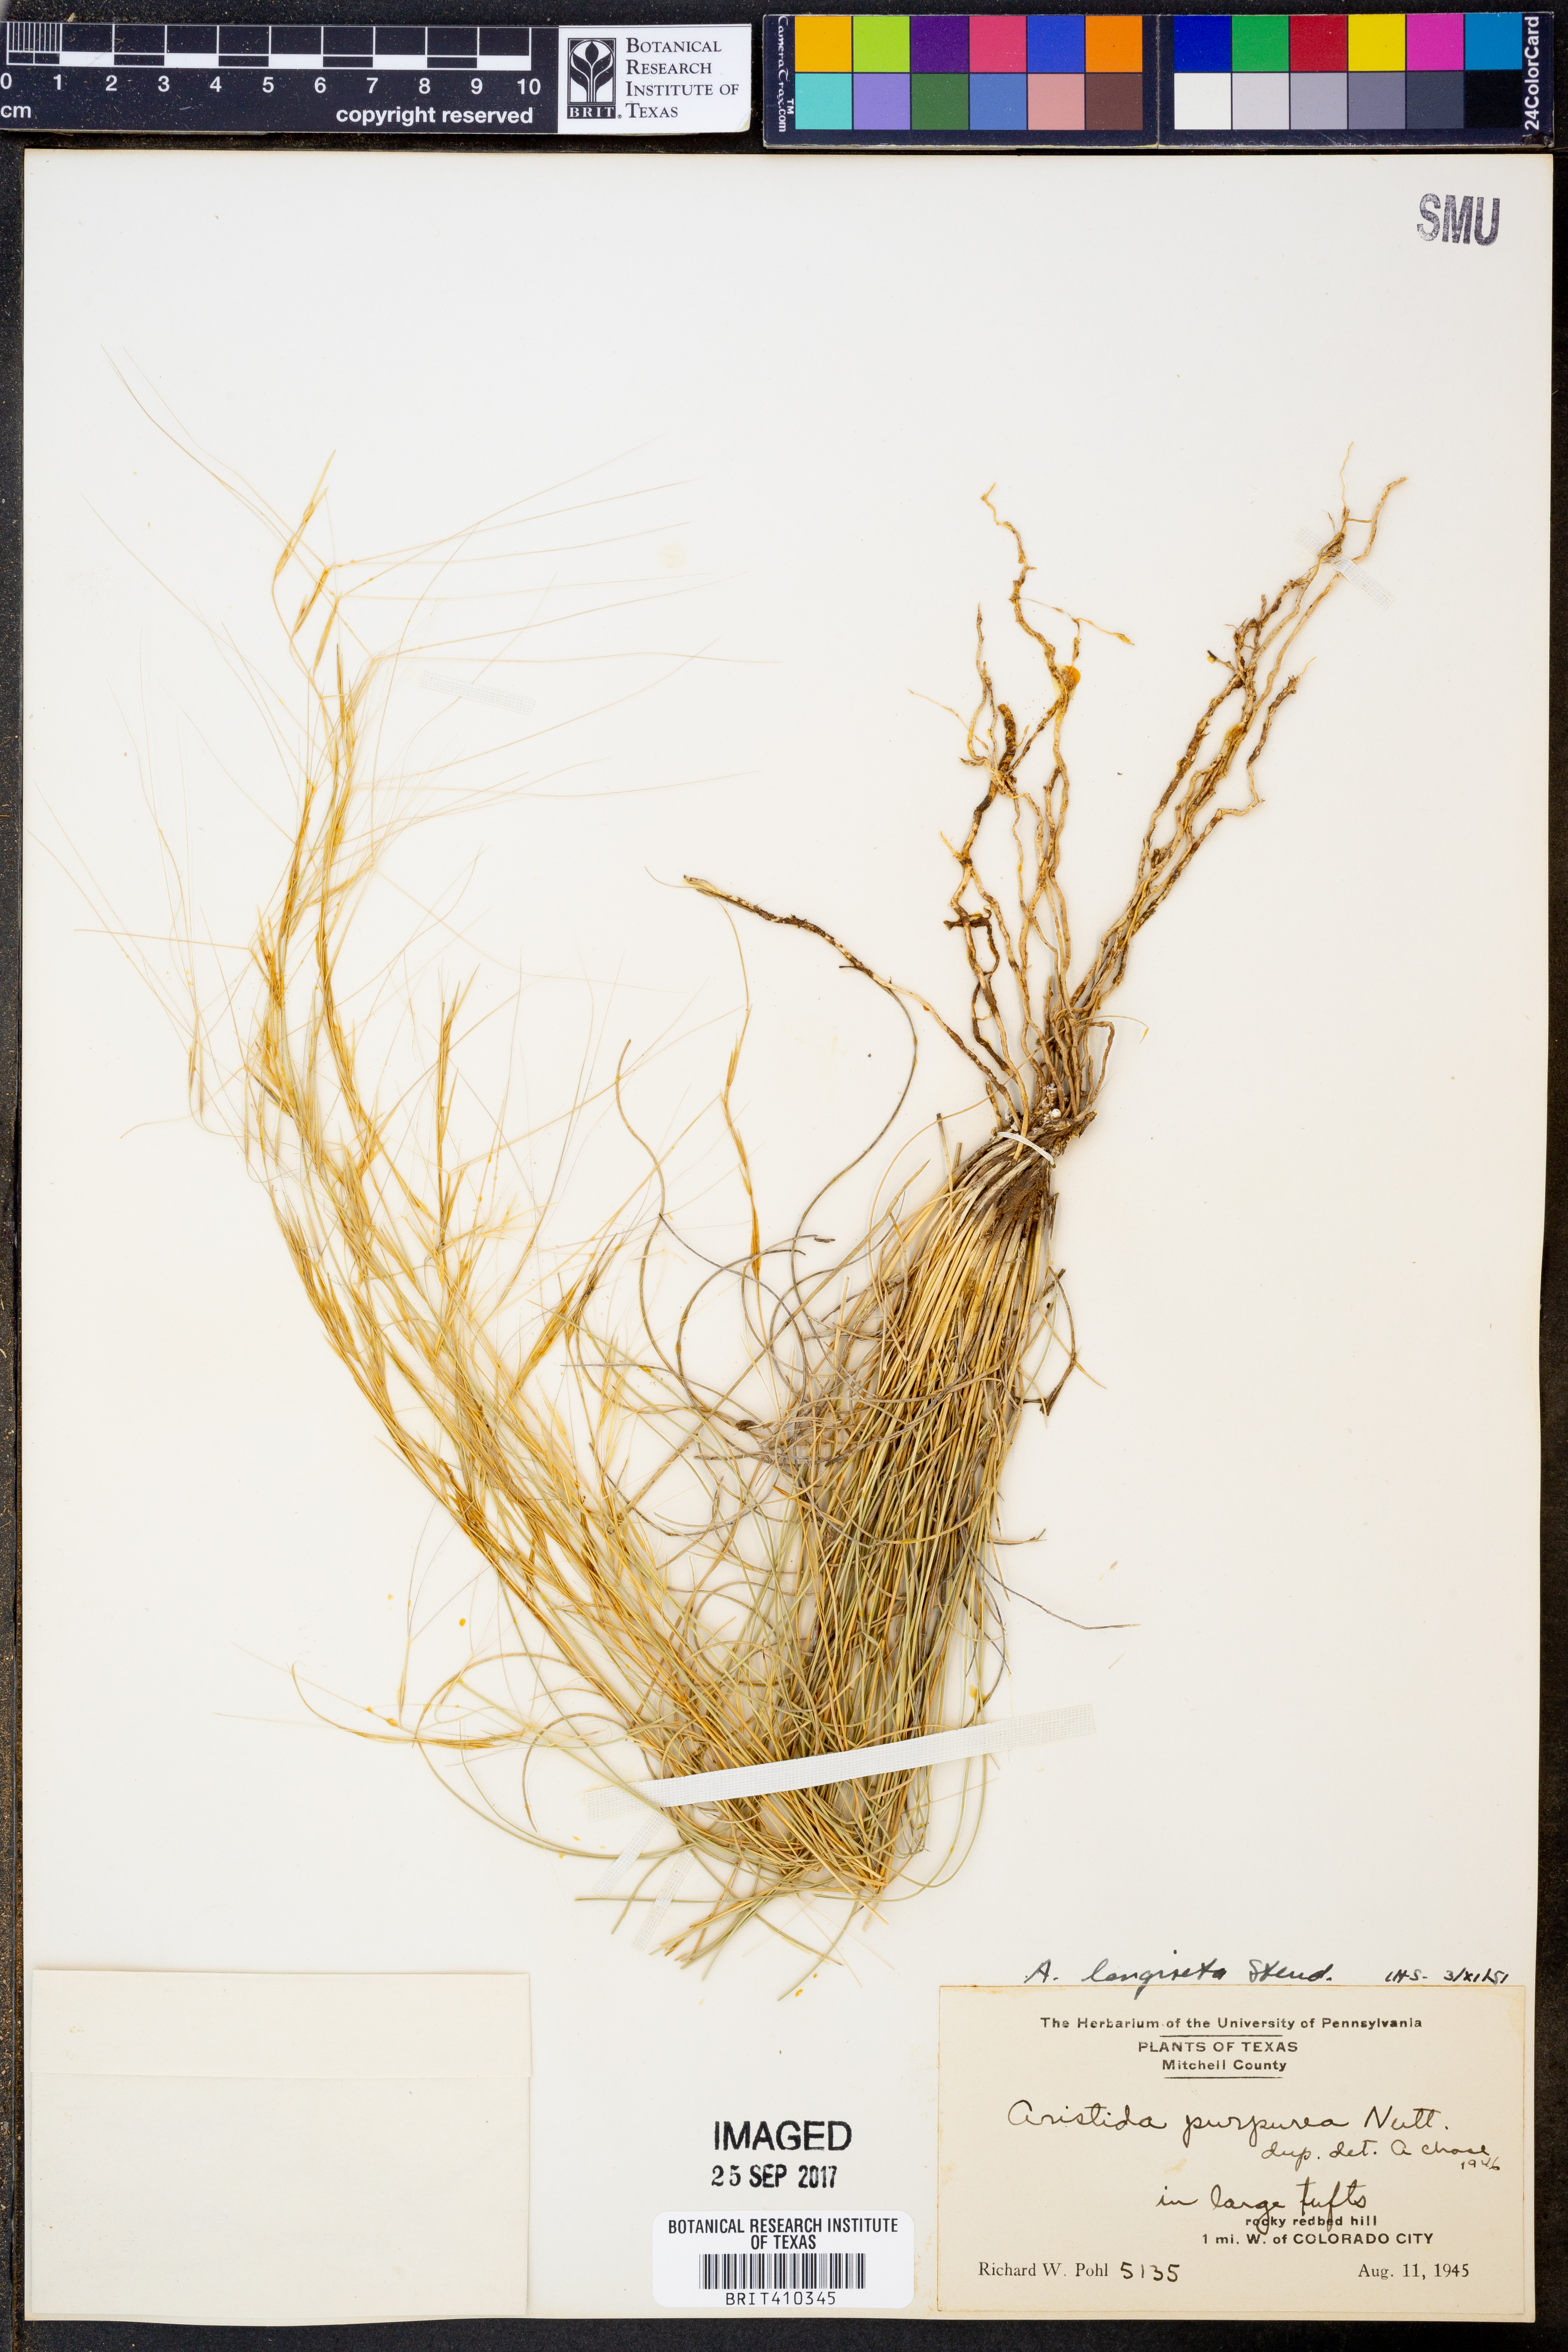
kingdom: Plantae
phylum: Tracheophyta
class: Liliopsida
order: Poales
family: Poaceae
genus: Aristida
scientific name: Aristida longiseta
